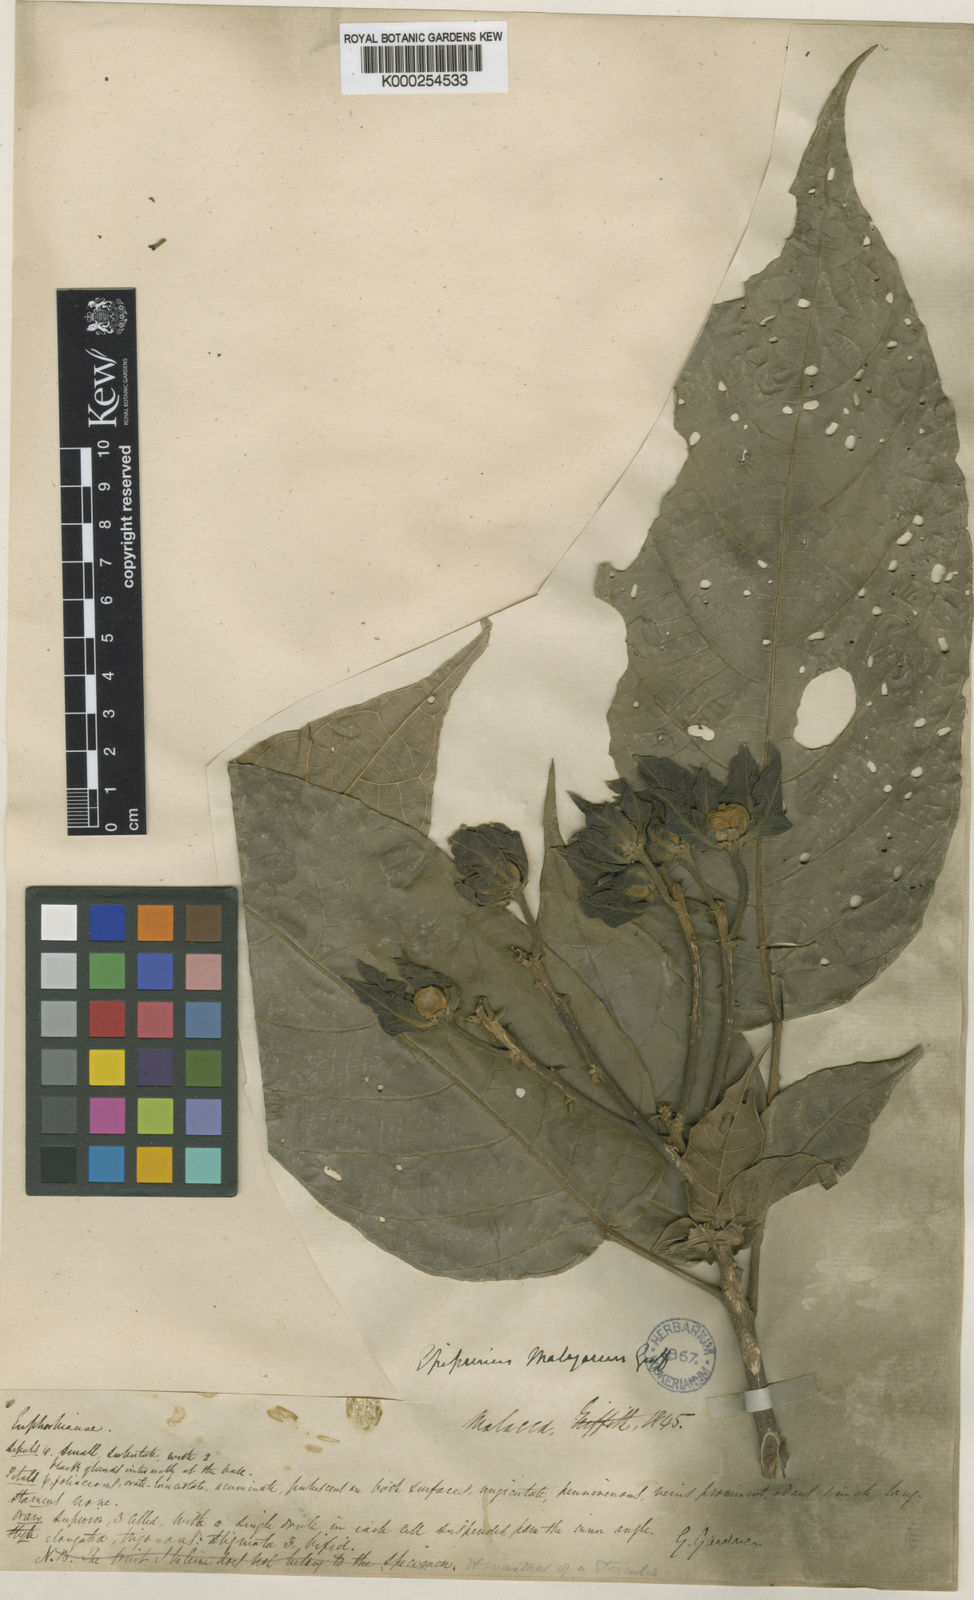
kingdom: Plantae
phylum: Tracheophyta
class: Magnoliopsida
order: Malpighiales
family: Euphorbiaceae
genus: Epiprinus
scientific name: Epiprinus malayanus
